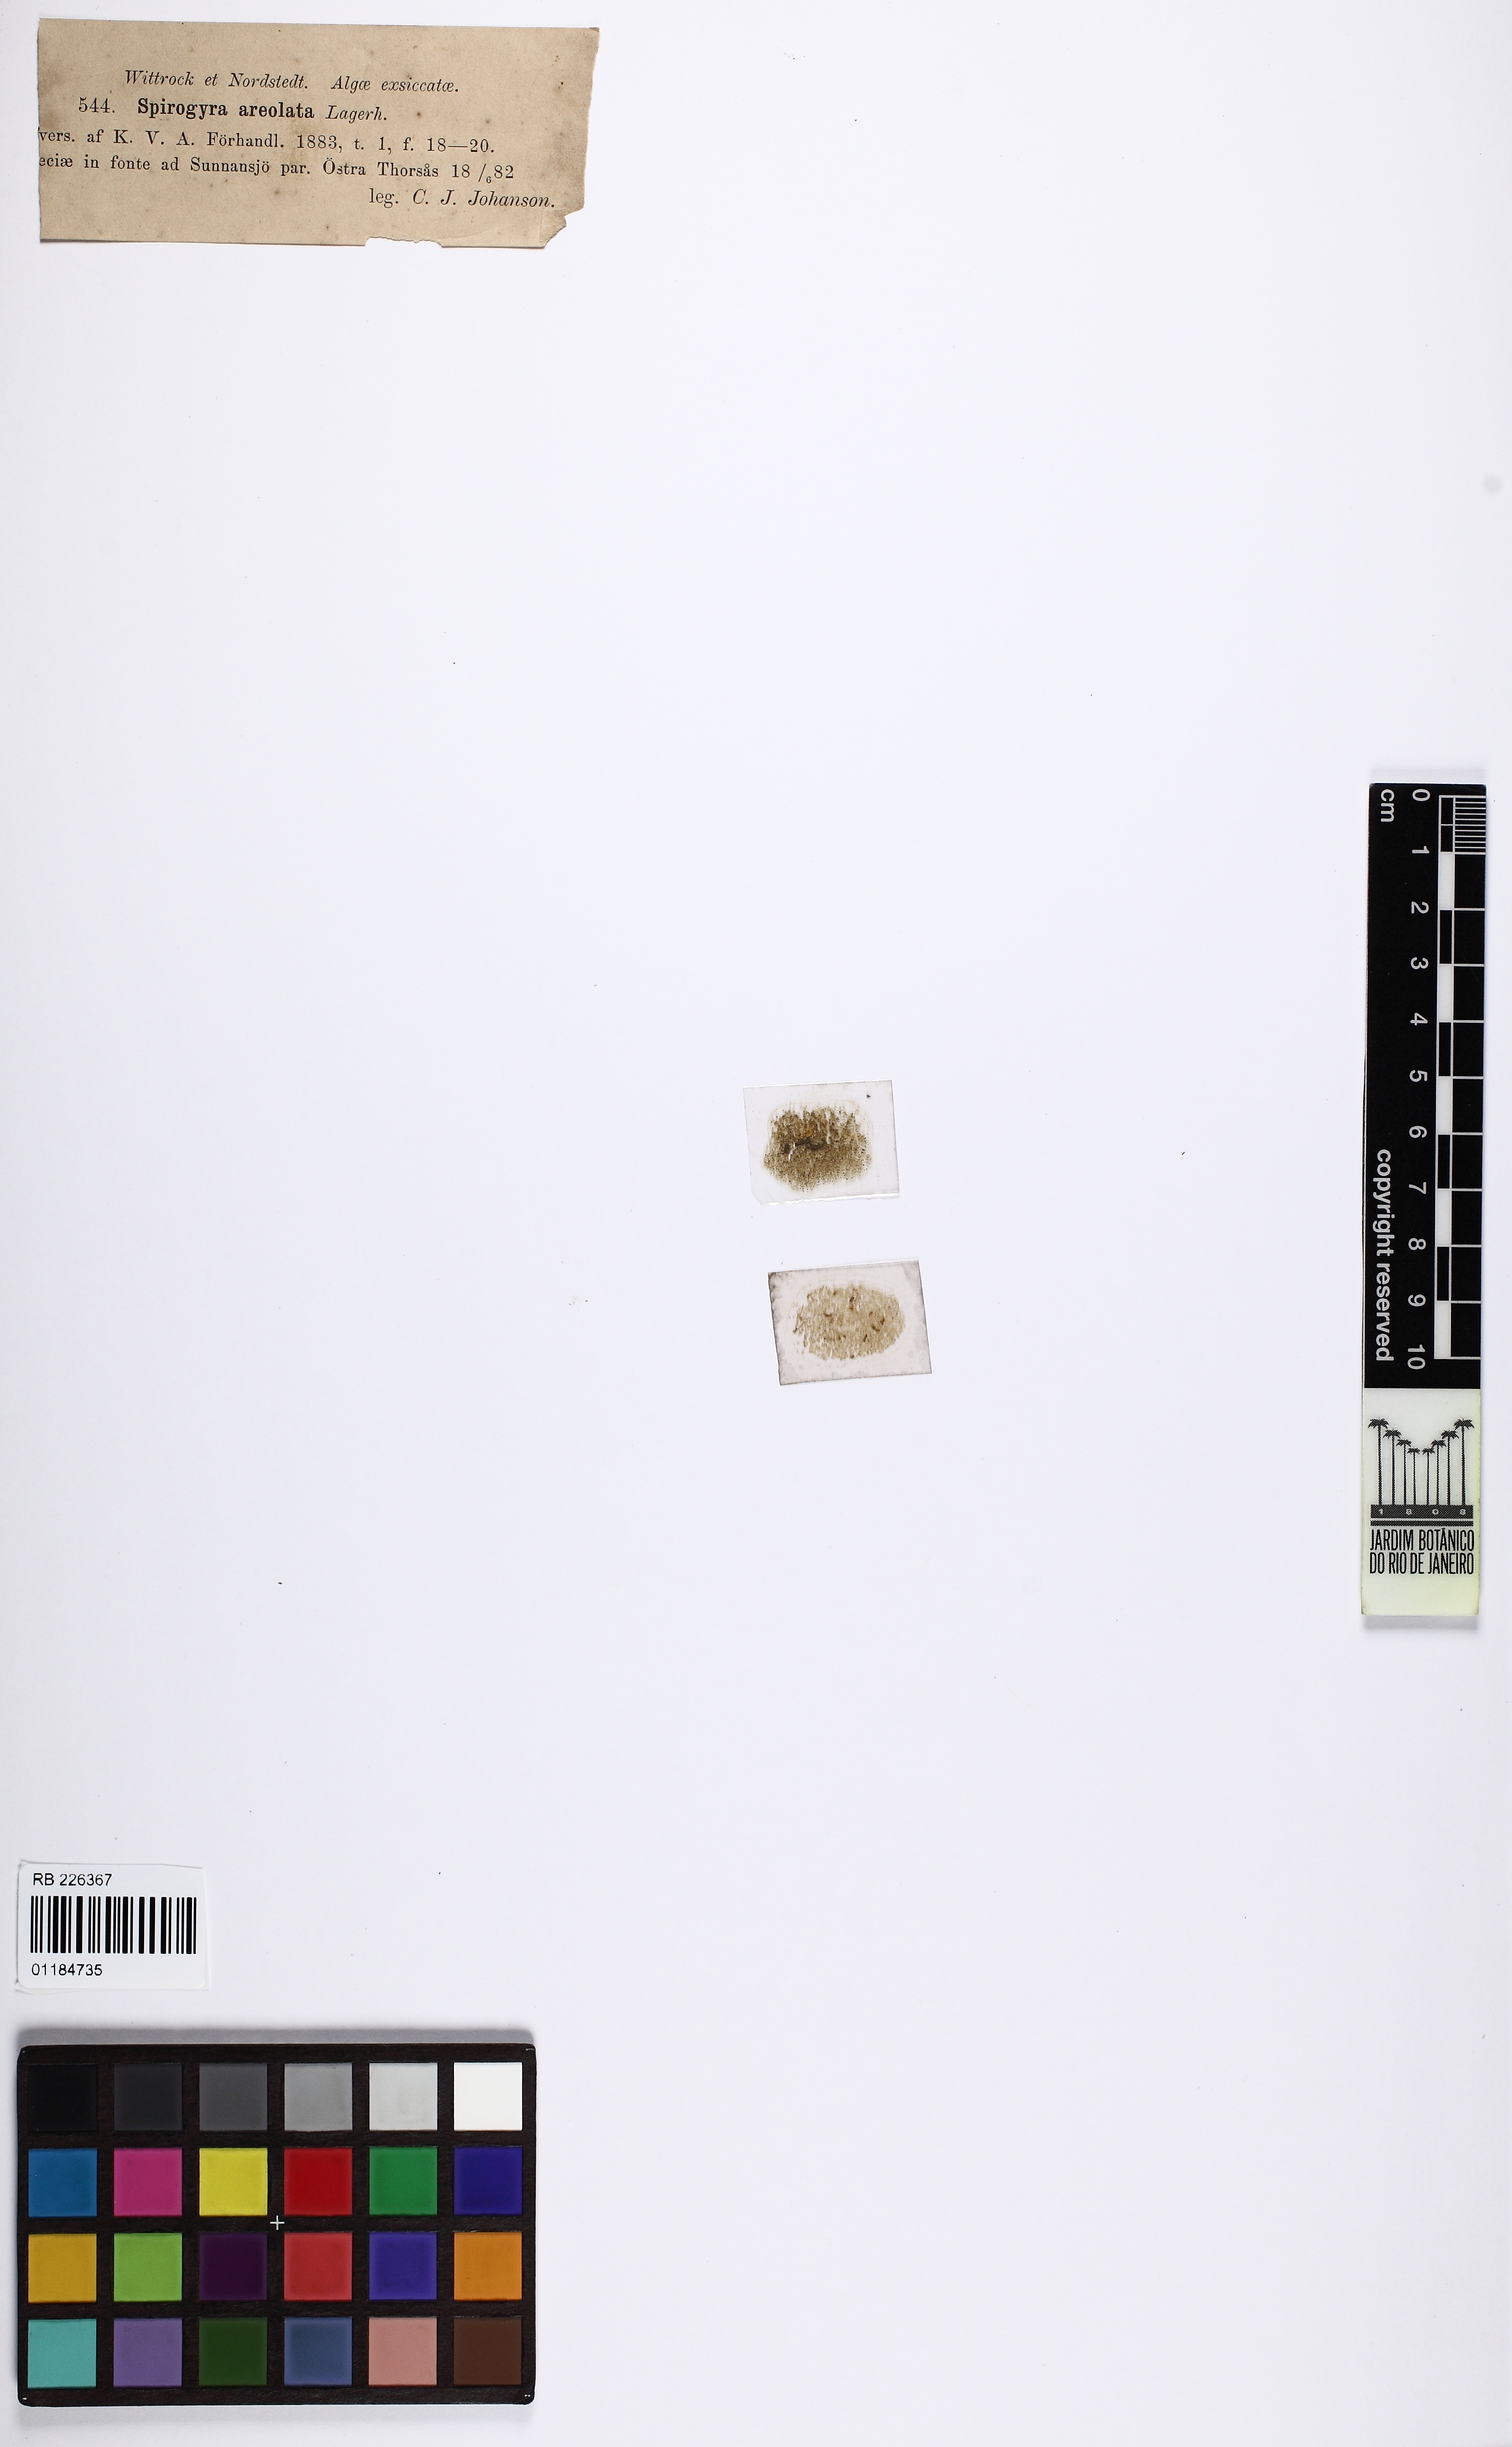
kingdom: Plantae
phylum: Charophyta
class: Zygnematophyceae
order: Zygnematales
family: Zygnemataceae
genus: Spirogyra
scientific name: Spirogyra areolata
